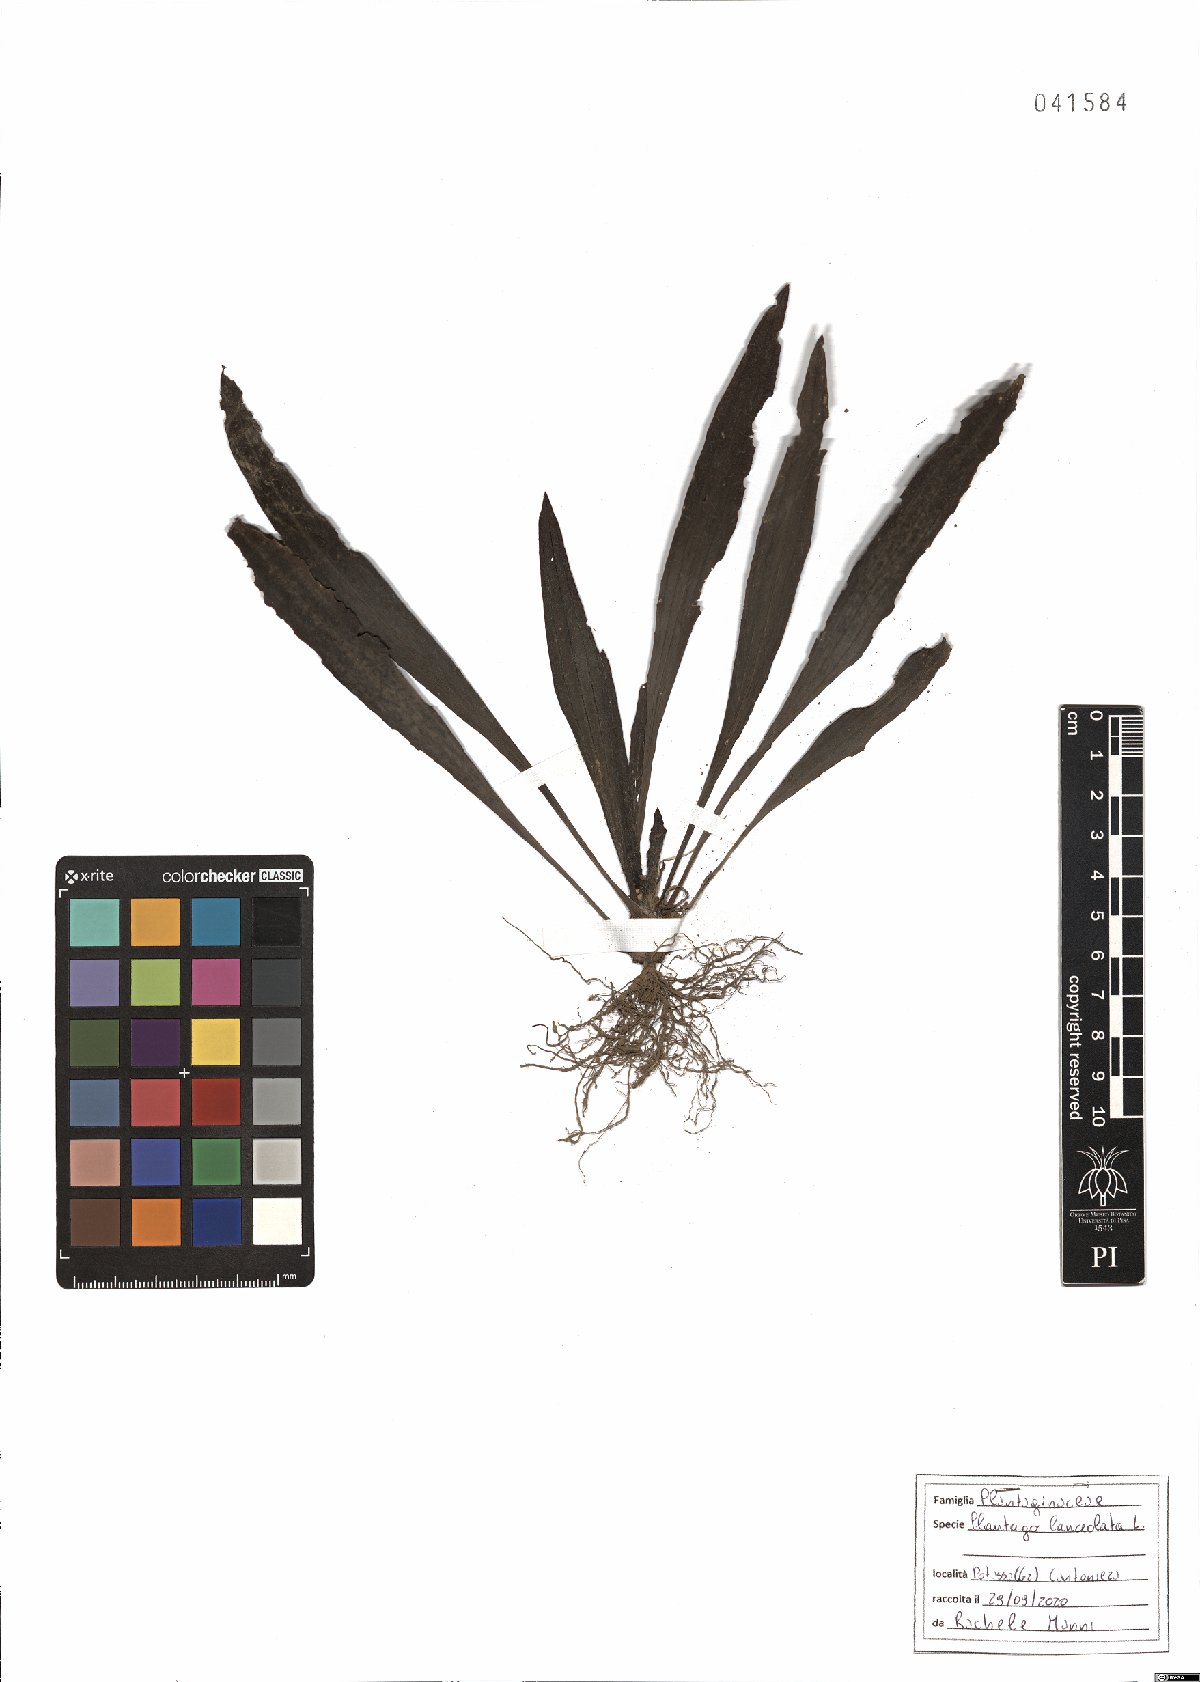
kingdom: Plantae
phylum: Tracheophyta
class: Magnoliopsida
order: Lamiales
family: Plantaginaceae
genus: Plantago
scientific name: Plantago lanceolata
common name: Ribwort plantain
